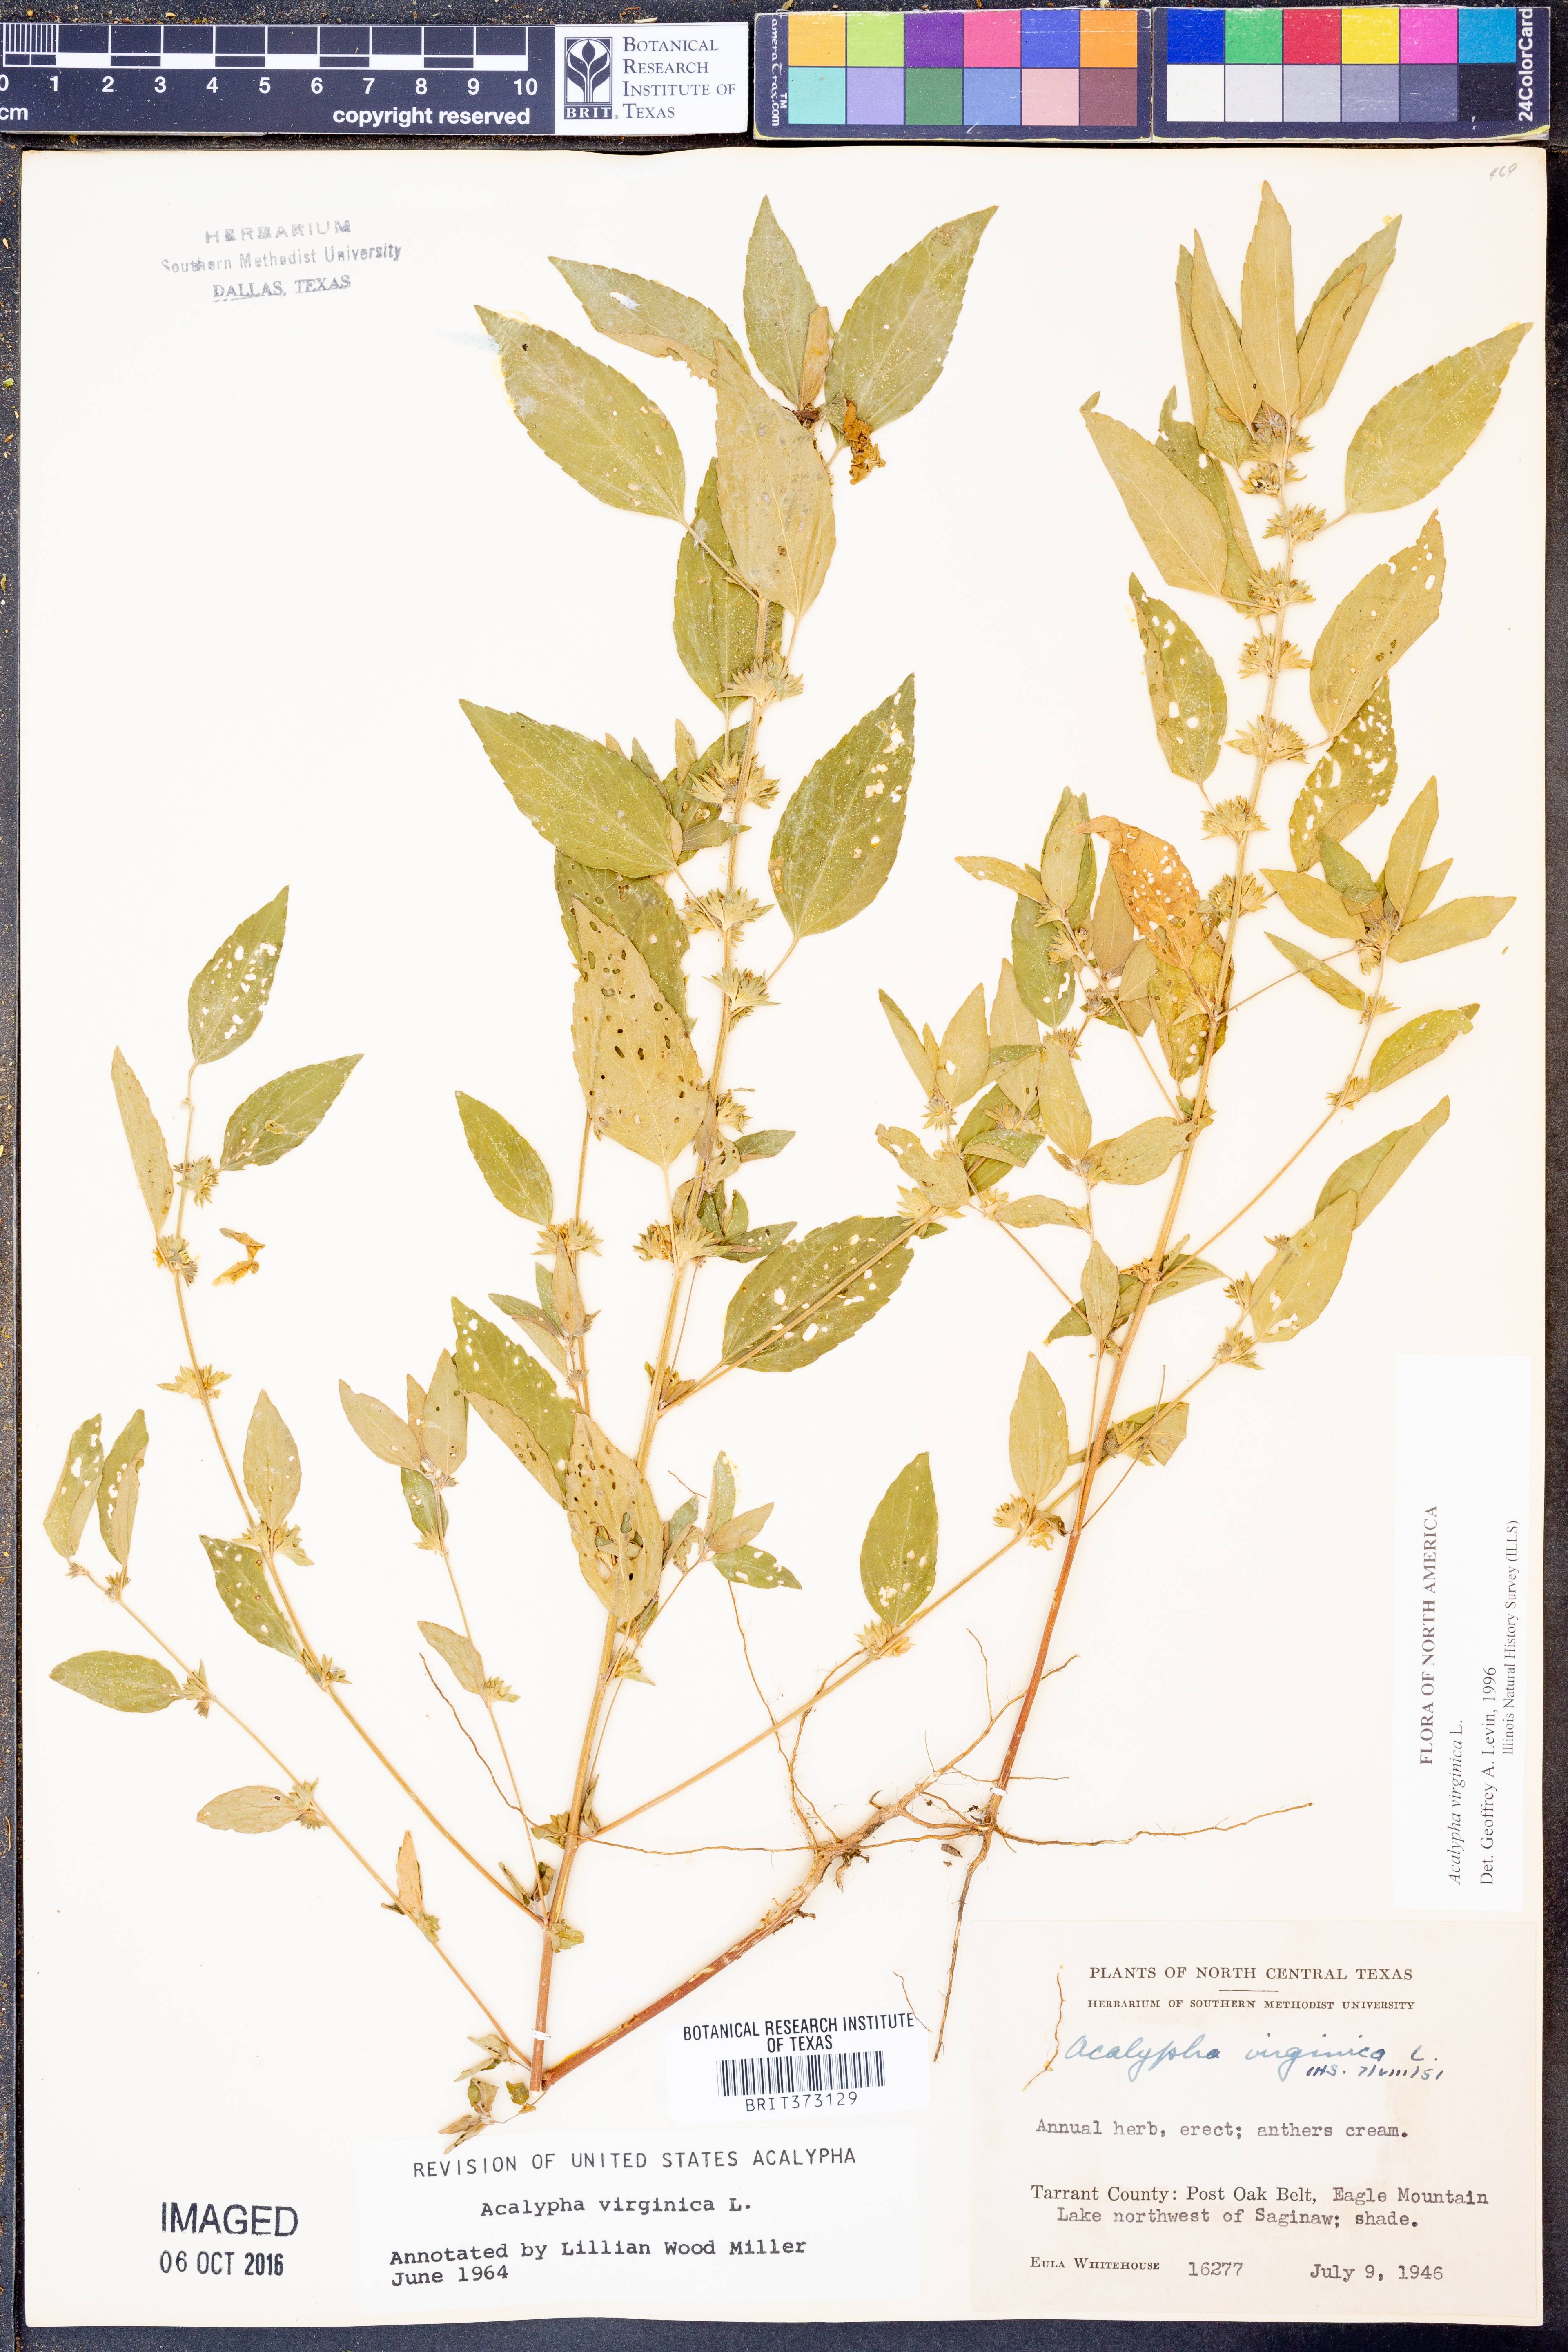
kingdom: Plantae
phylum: Tracheophyta
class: Magnoliopsida
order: Malpighiales
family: Euphorbiaceae
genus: Acalypha
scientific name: Acalypha virginica
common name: Virginia copperleaf
